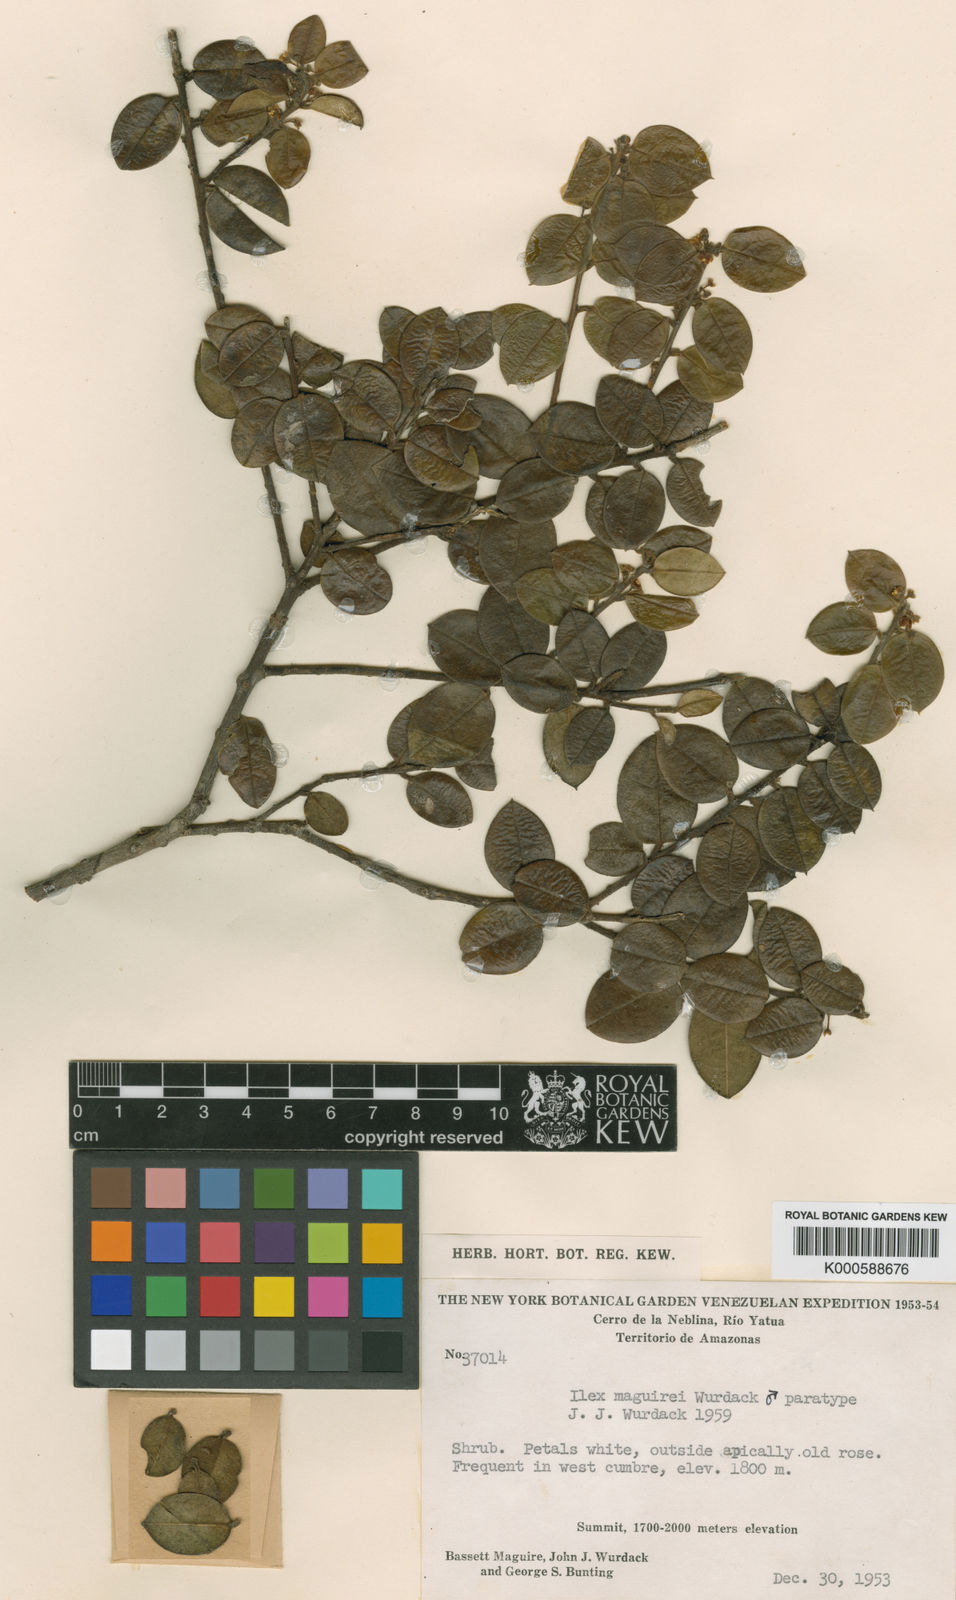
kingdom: Plantae
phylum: Tracheophyta
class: Magnoliopsida
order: Aquifoliales
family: Aquifoliaceae
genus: Ilex
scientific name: Ilex maguirei
